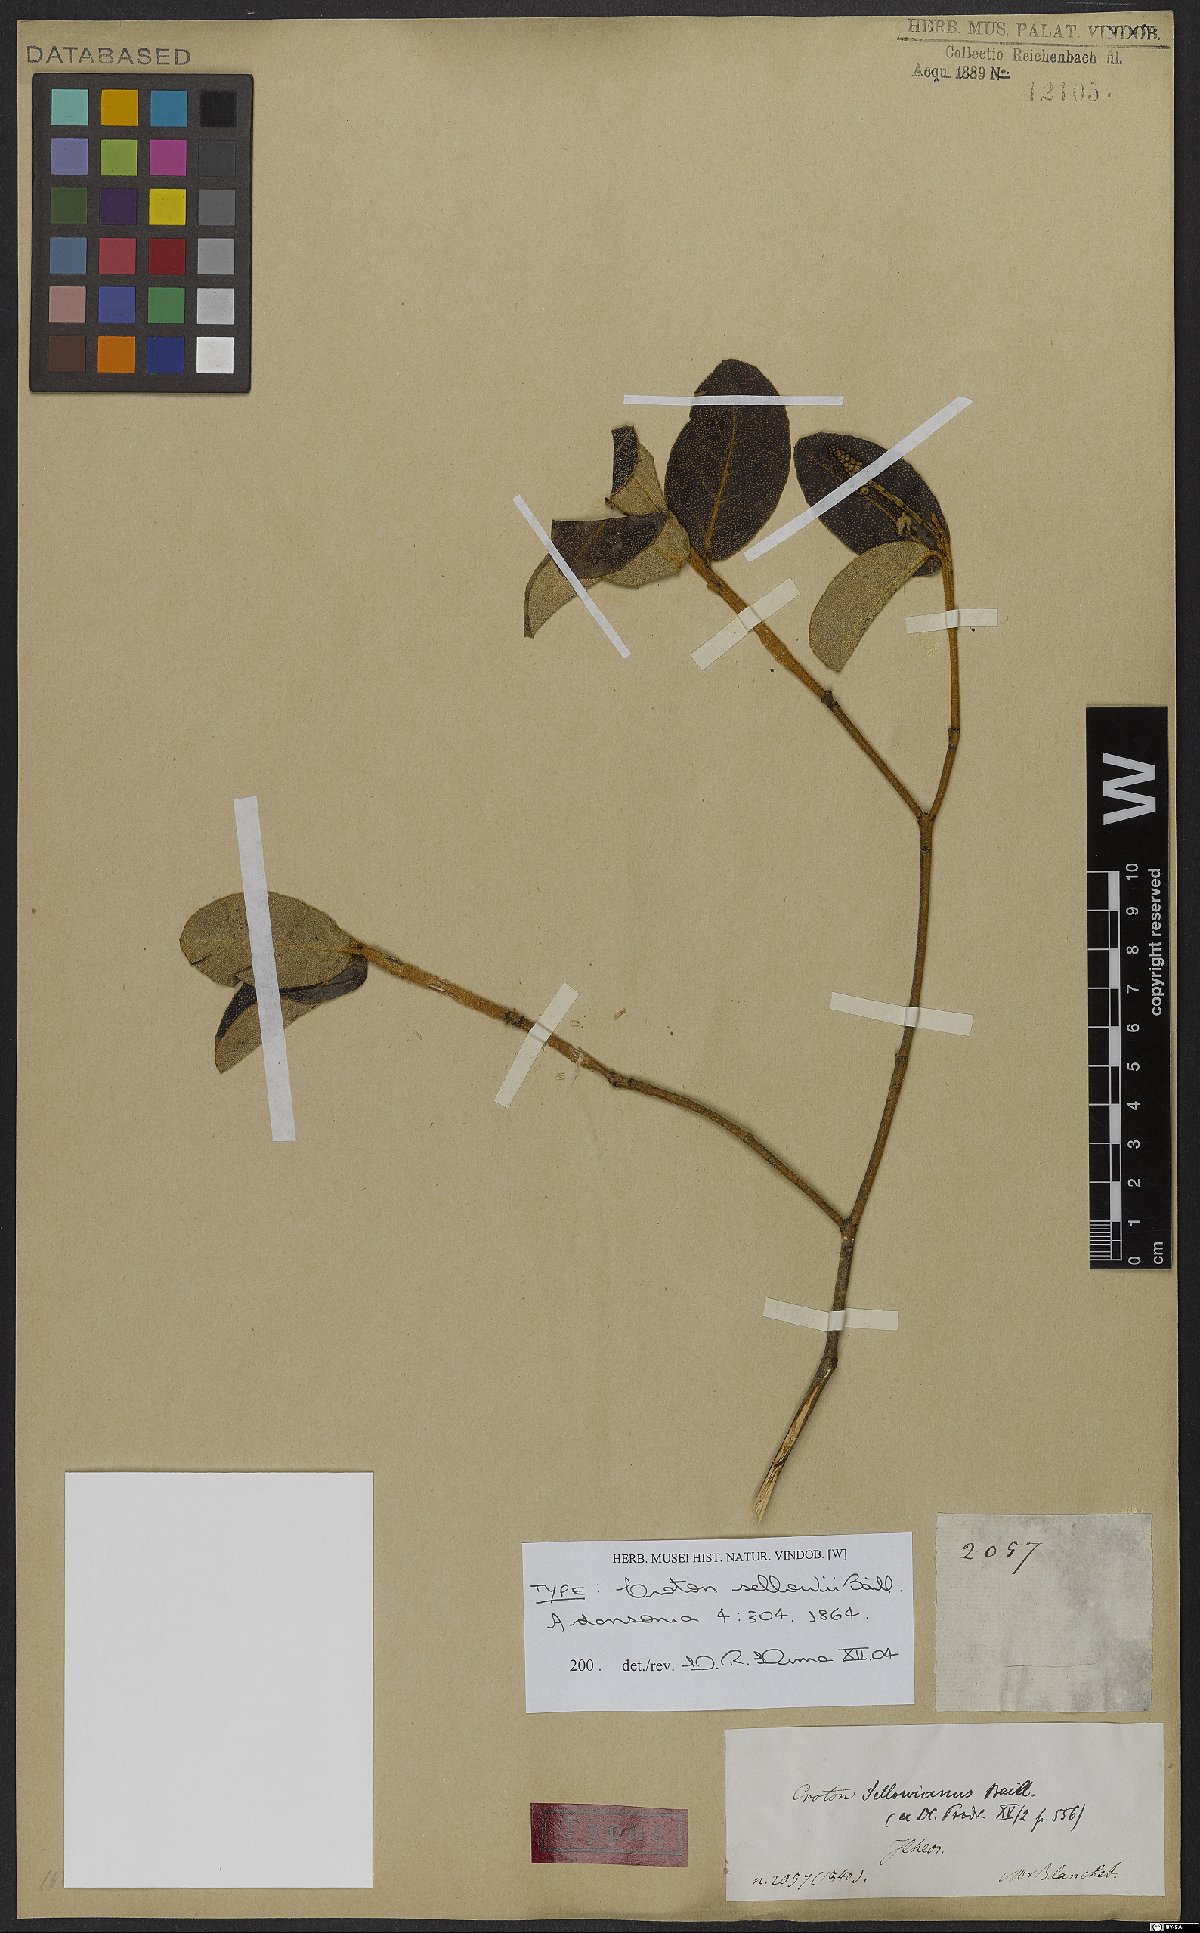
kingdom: Plantae
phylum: Tracheophyta
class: Magnoliopsida
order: Malpighiales
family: Euphorbiaceae
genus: Croton
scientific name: Croton sellowii
